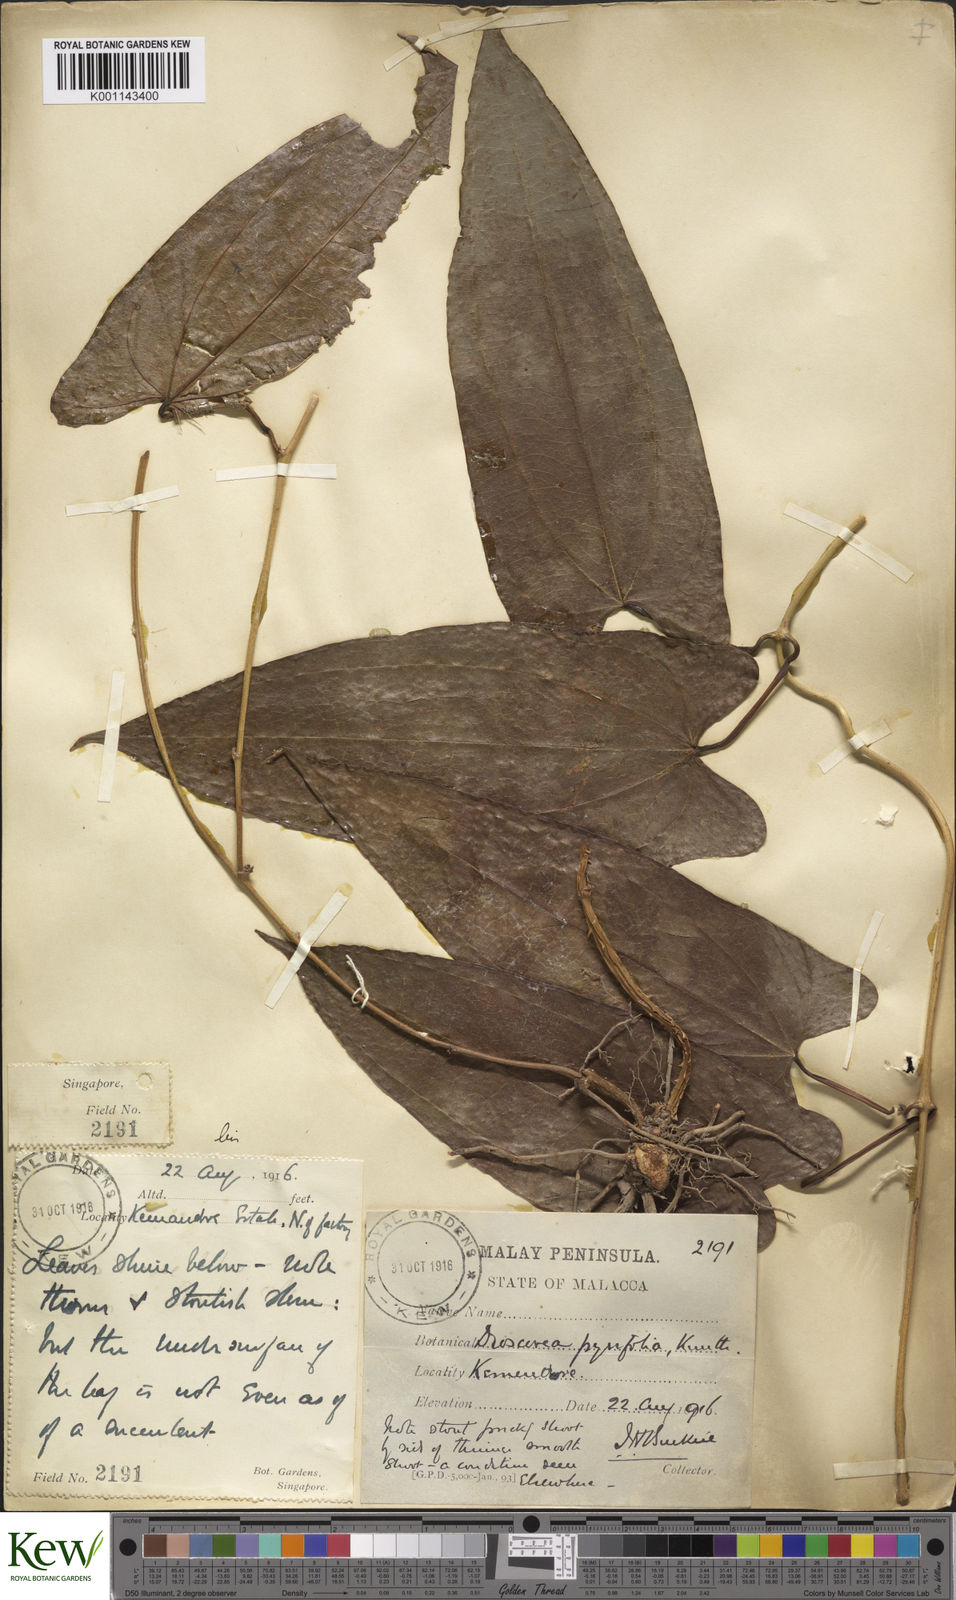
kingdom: Plantae
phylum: Tracheophyta
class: Liliopsida
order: Dioscoreales
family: Dioscoreaceae
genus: Dioscorea
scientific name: Dioscorea pyrifolia
